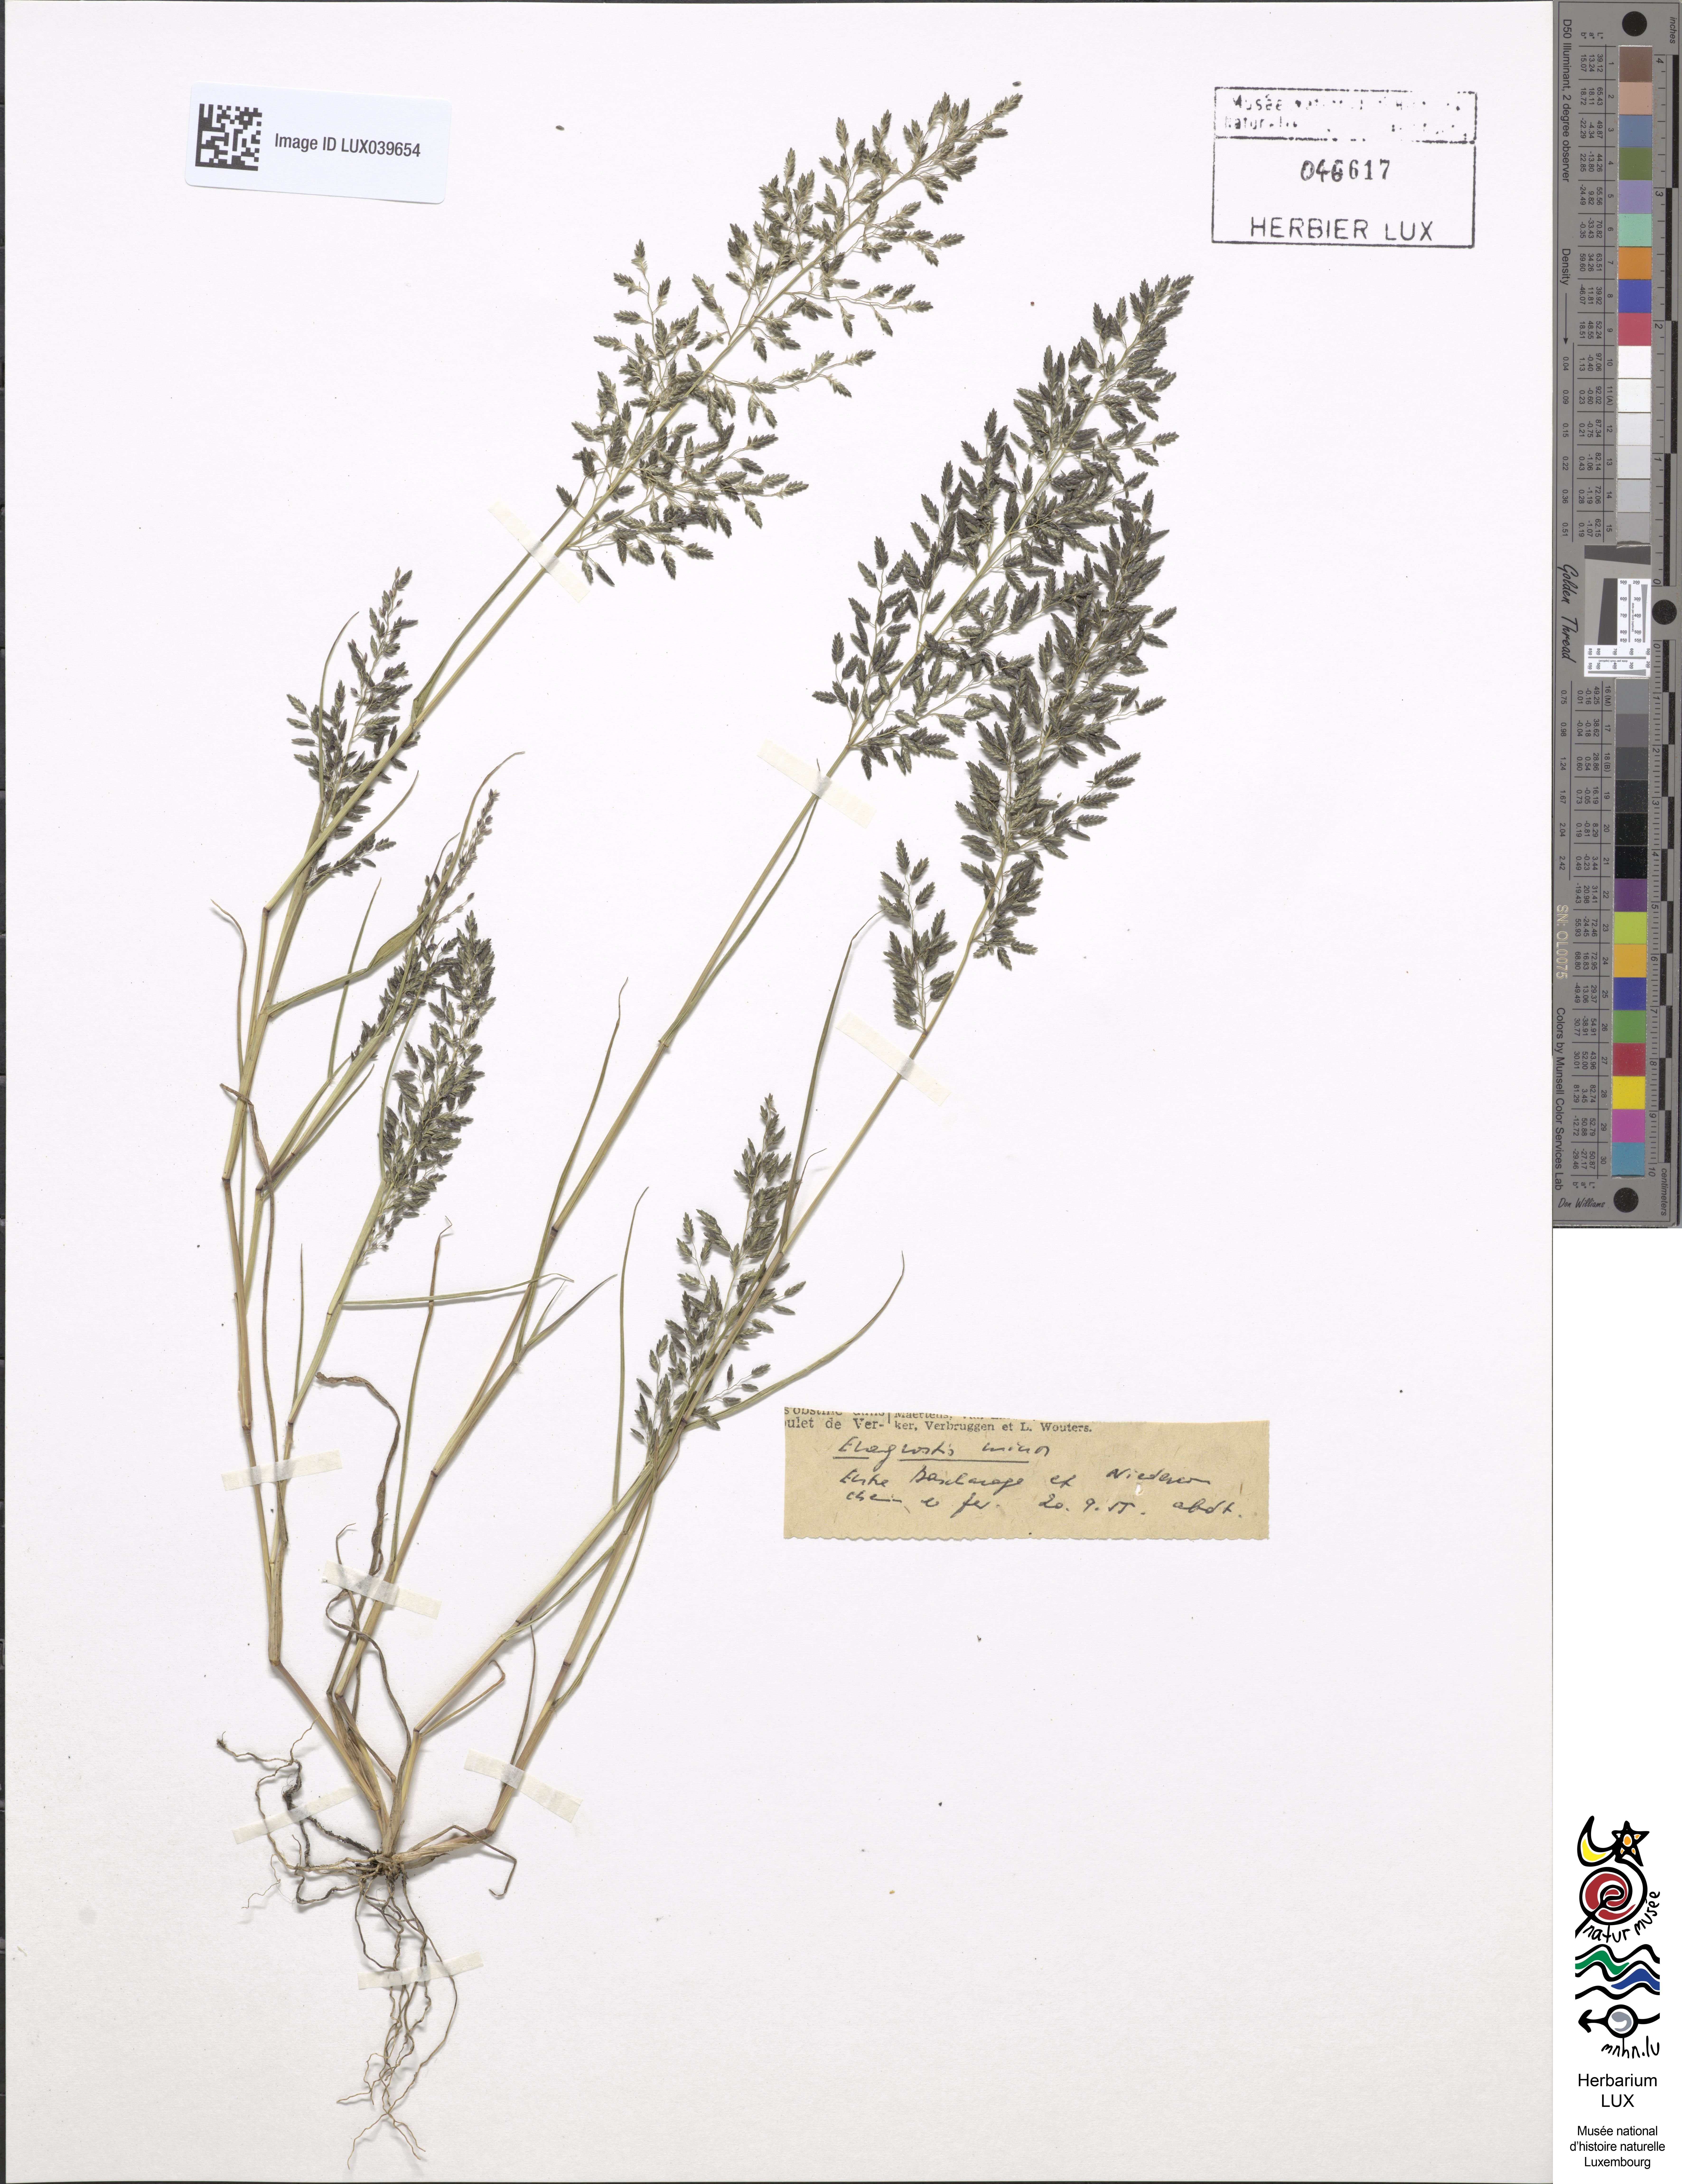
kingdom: Plantae
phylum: Tracheophyta
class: Liliopsida
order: Poales
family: Poaceae
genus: Eragrostis
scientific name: Eragrostis minor
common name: Small love-grass
